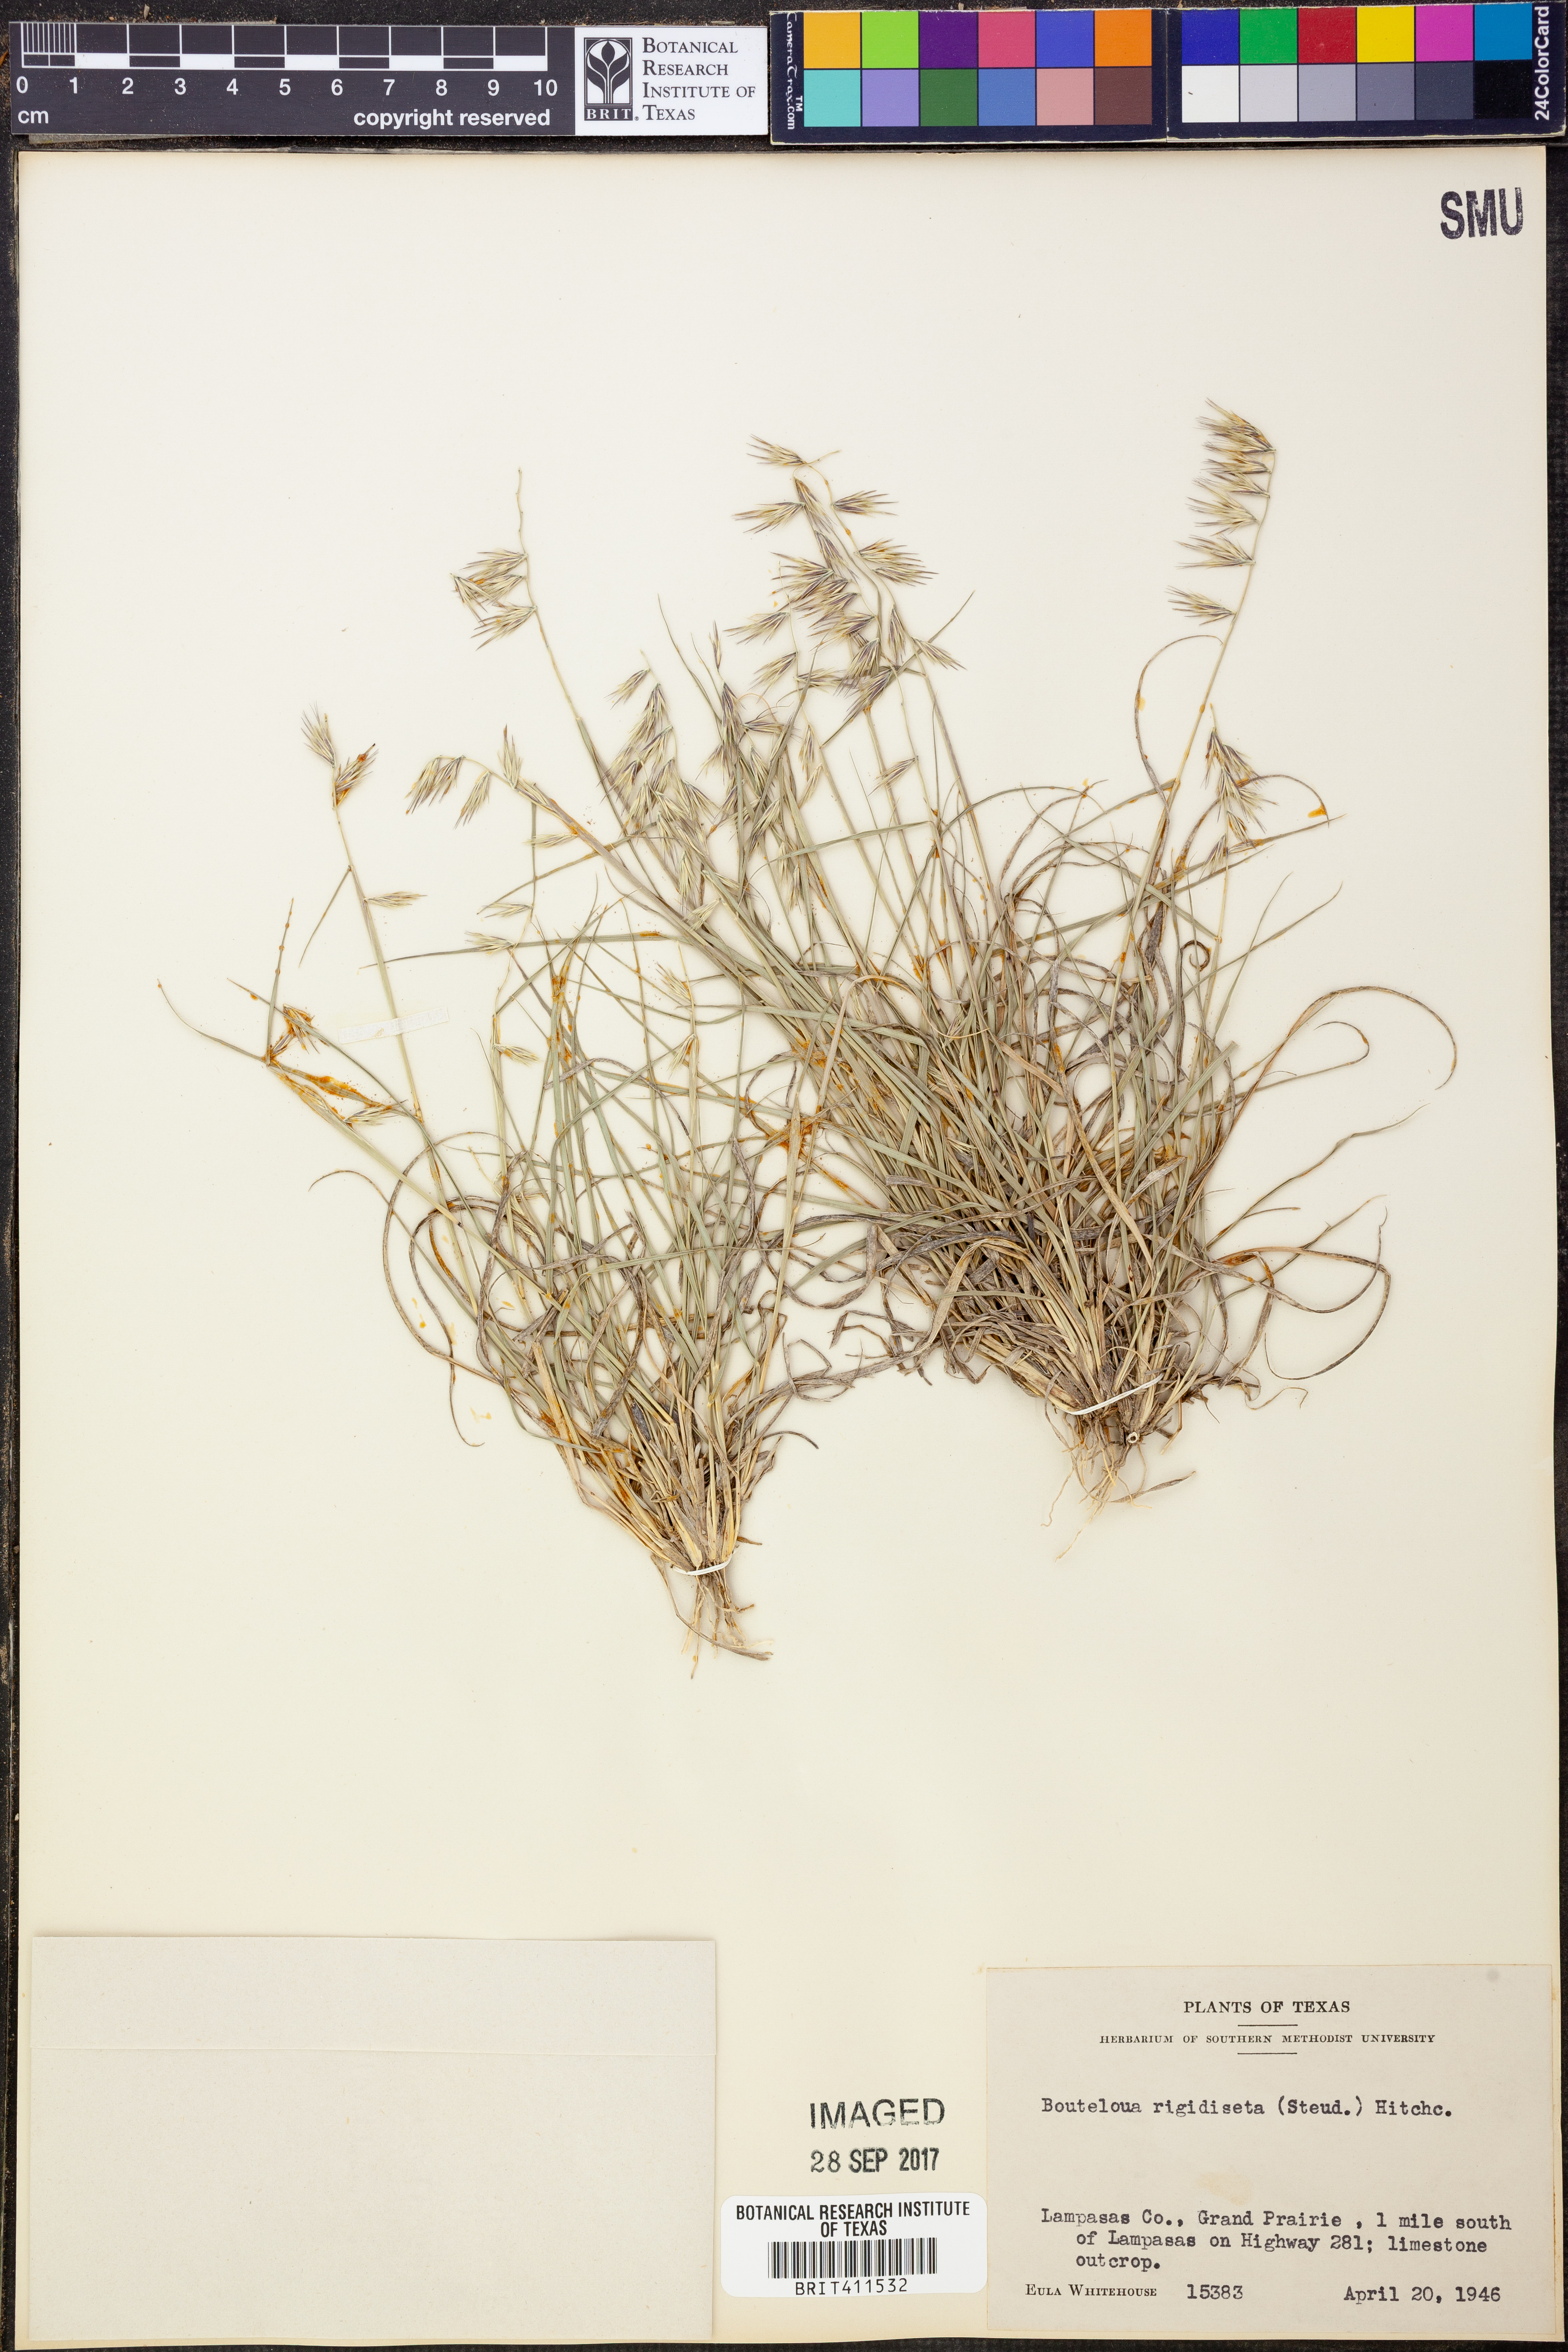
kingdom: Plantae
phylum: Tracheophyta
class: Liliopsida
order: Poales
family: Poaceae
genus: Bouteloua
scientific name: Bouteloua rigidiseta
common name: Texas grama
